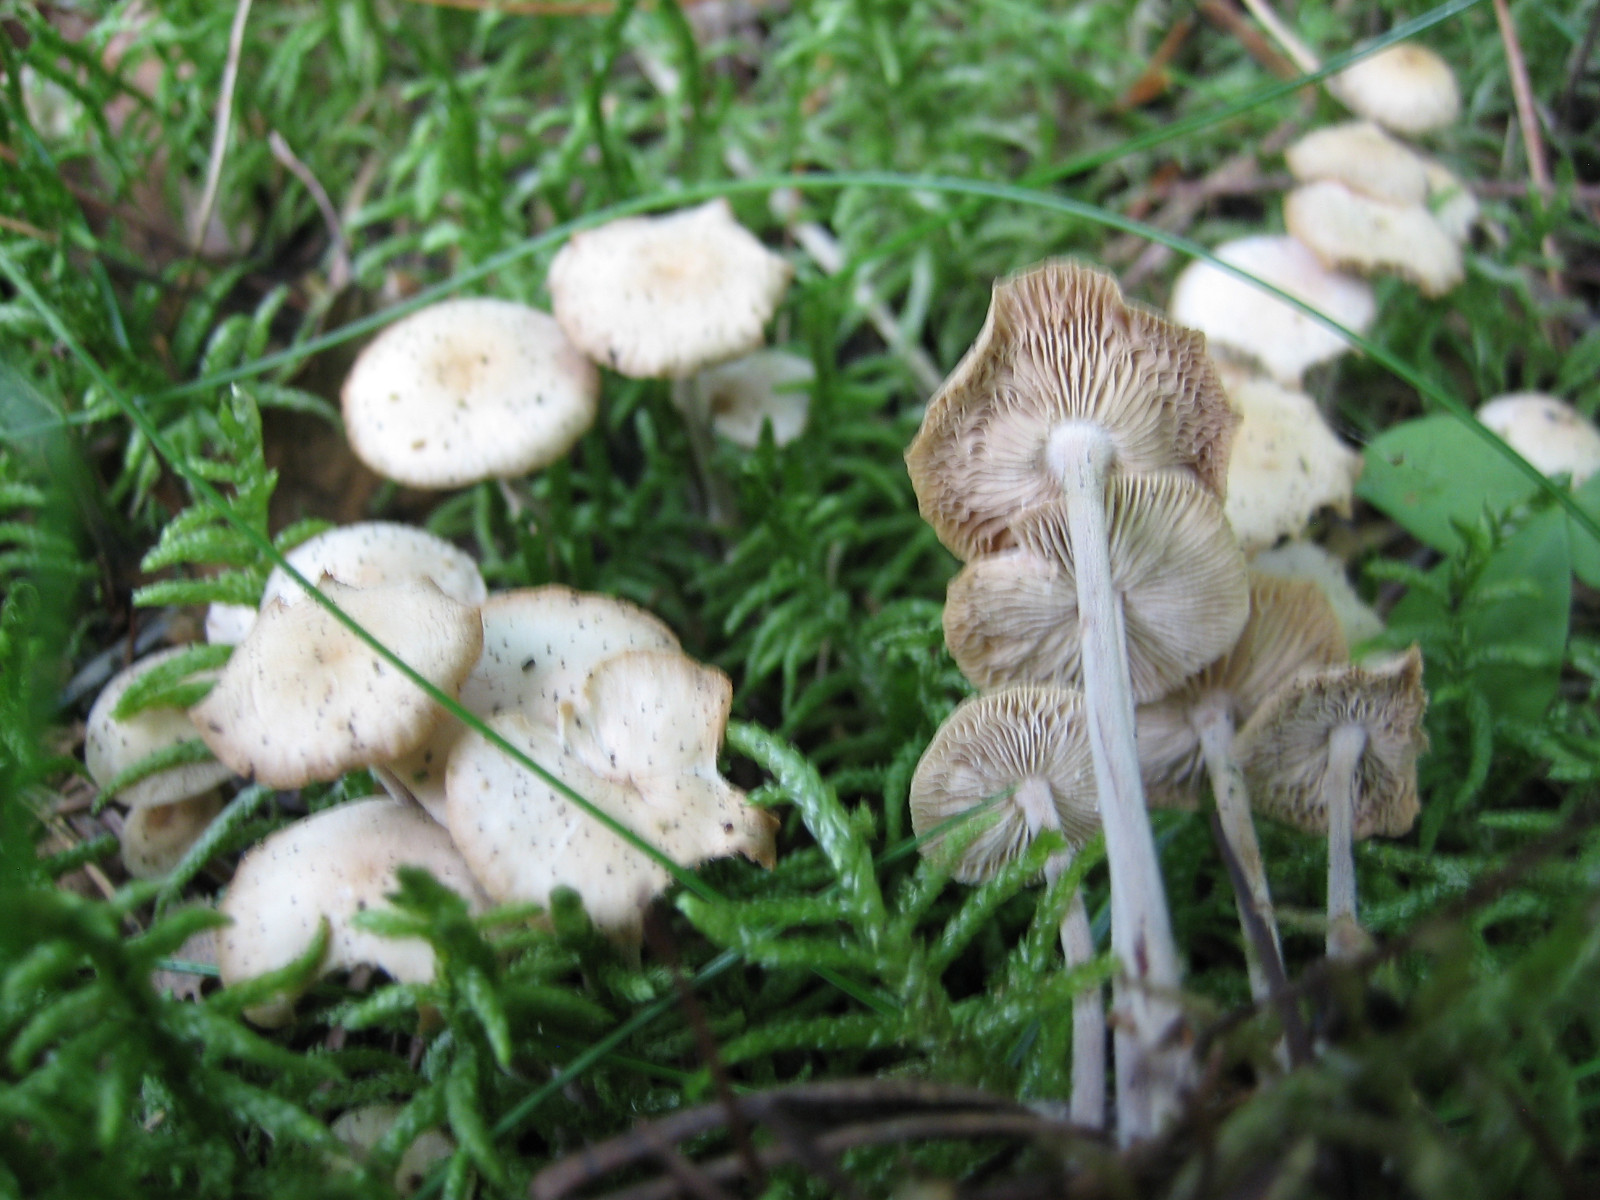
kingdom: Fungi
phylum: Basidiomycota
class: Agaricomycetes
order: Agaricales
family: Omphalotaceae
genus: Collybiopsis
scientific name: Collybiopsis confluens
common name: knippe-fladhat
